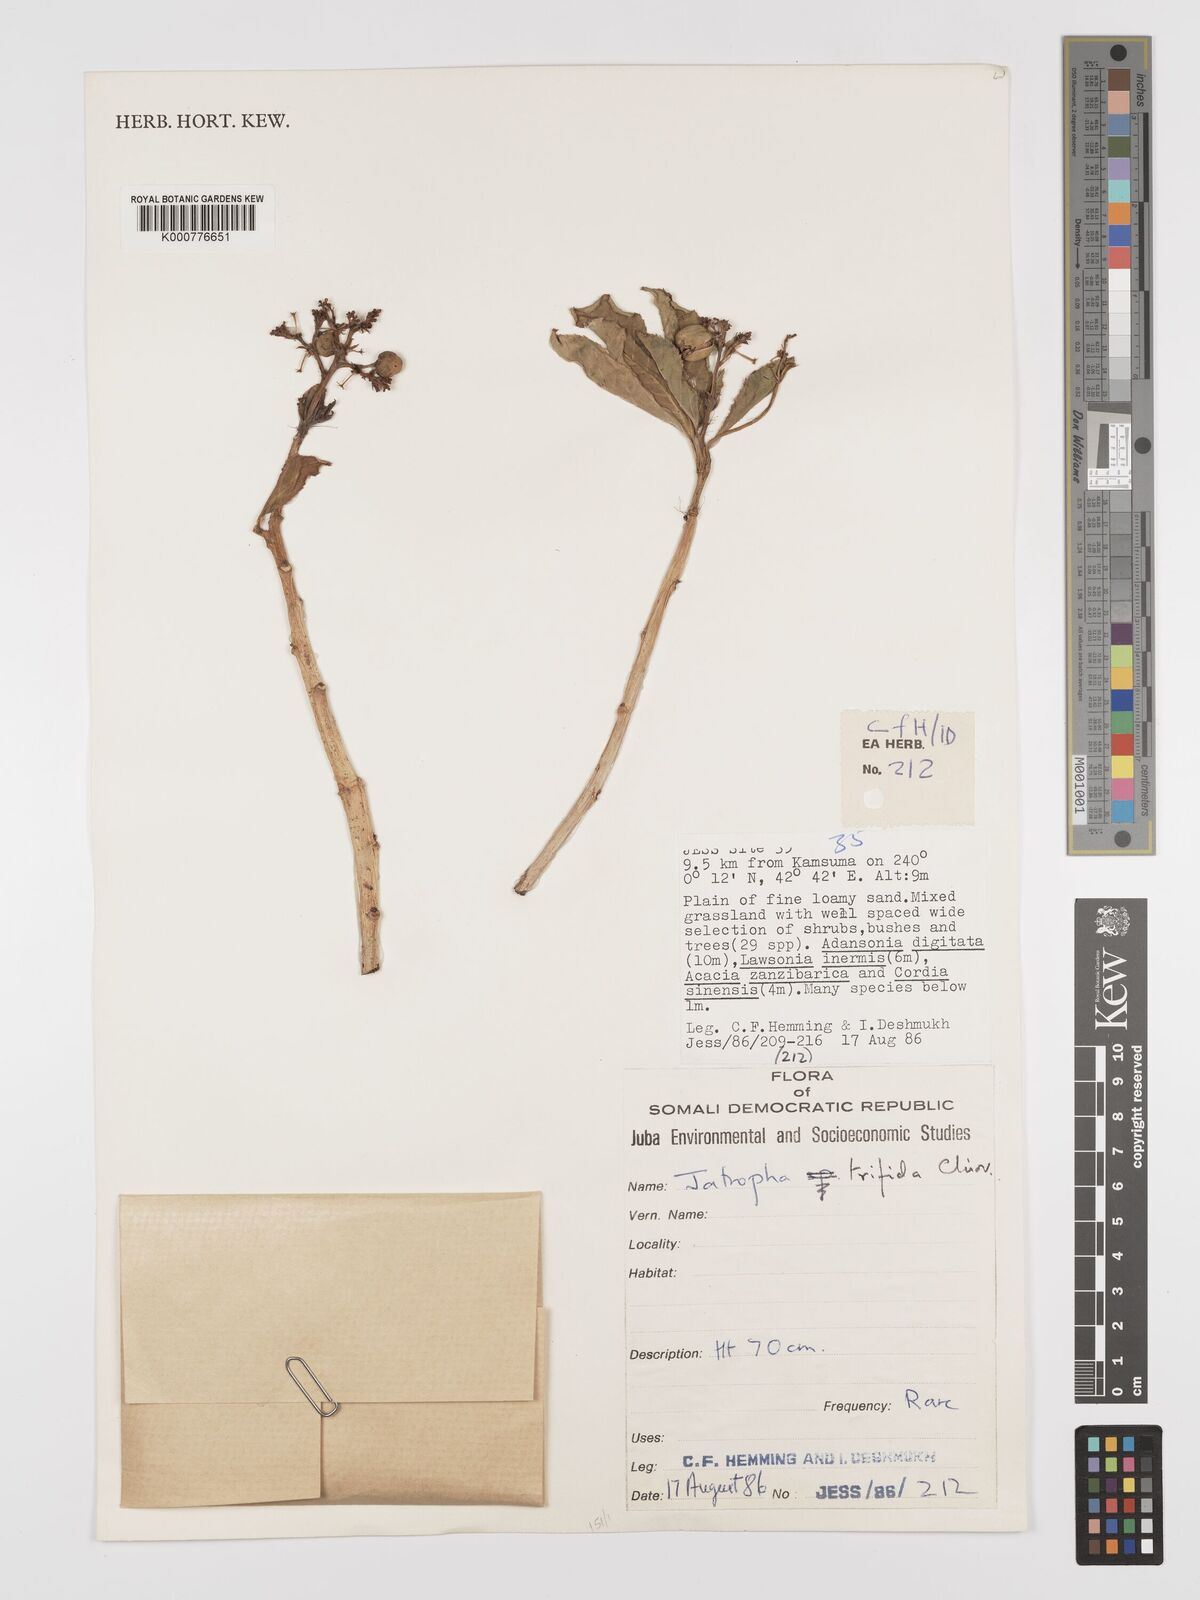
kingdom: Plantae
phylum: Tracheophyta
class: Magnoliopsida
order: Malpighiales
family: Euphorbiaceae
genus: Jatropha
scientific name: Jatropha trifida
